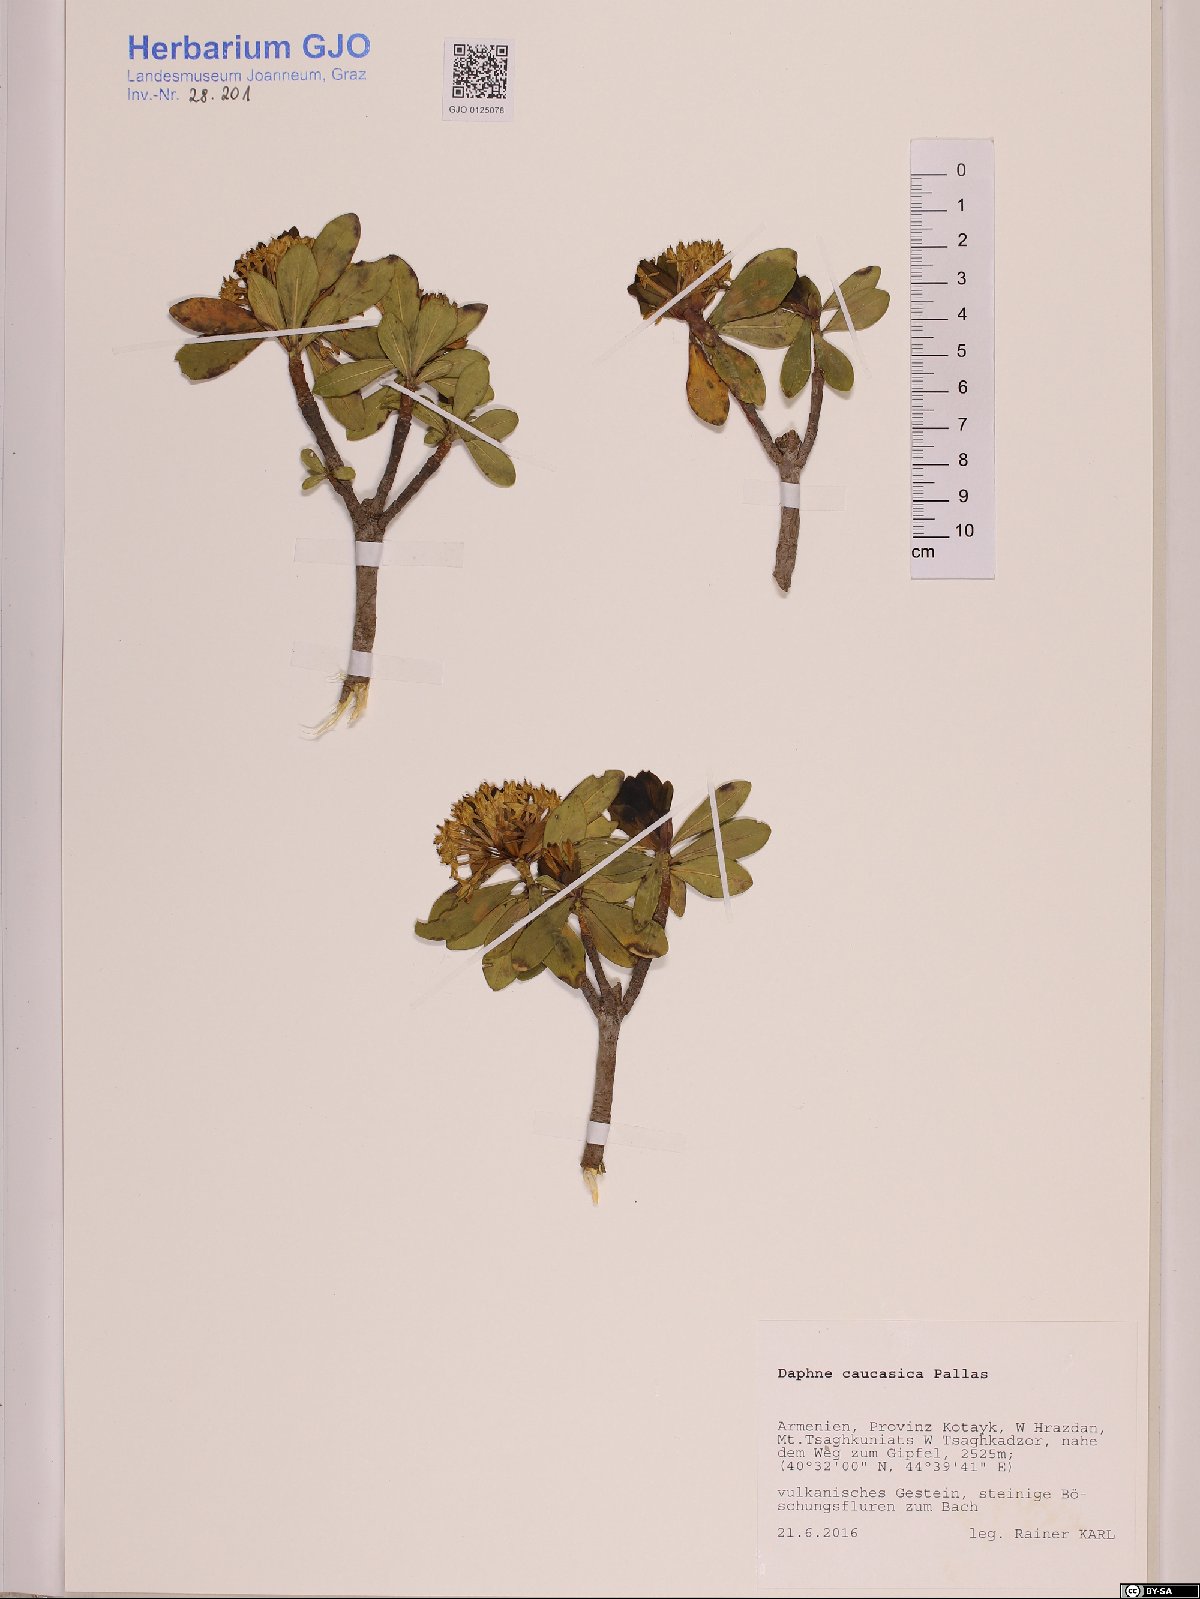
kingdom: Plantae
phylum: Tracheophyta
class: Magnoliopsida
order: Malvales
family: Thymelaeaceae
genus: Daphne
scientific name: Daphne caucasica
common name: Caucasian daphne
